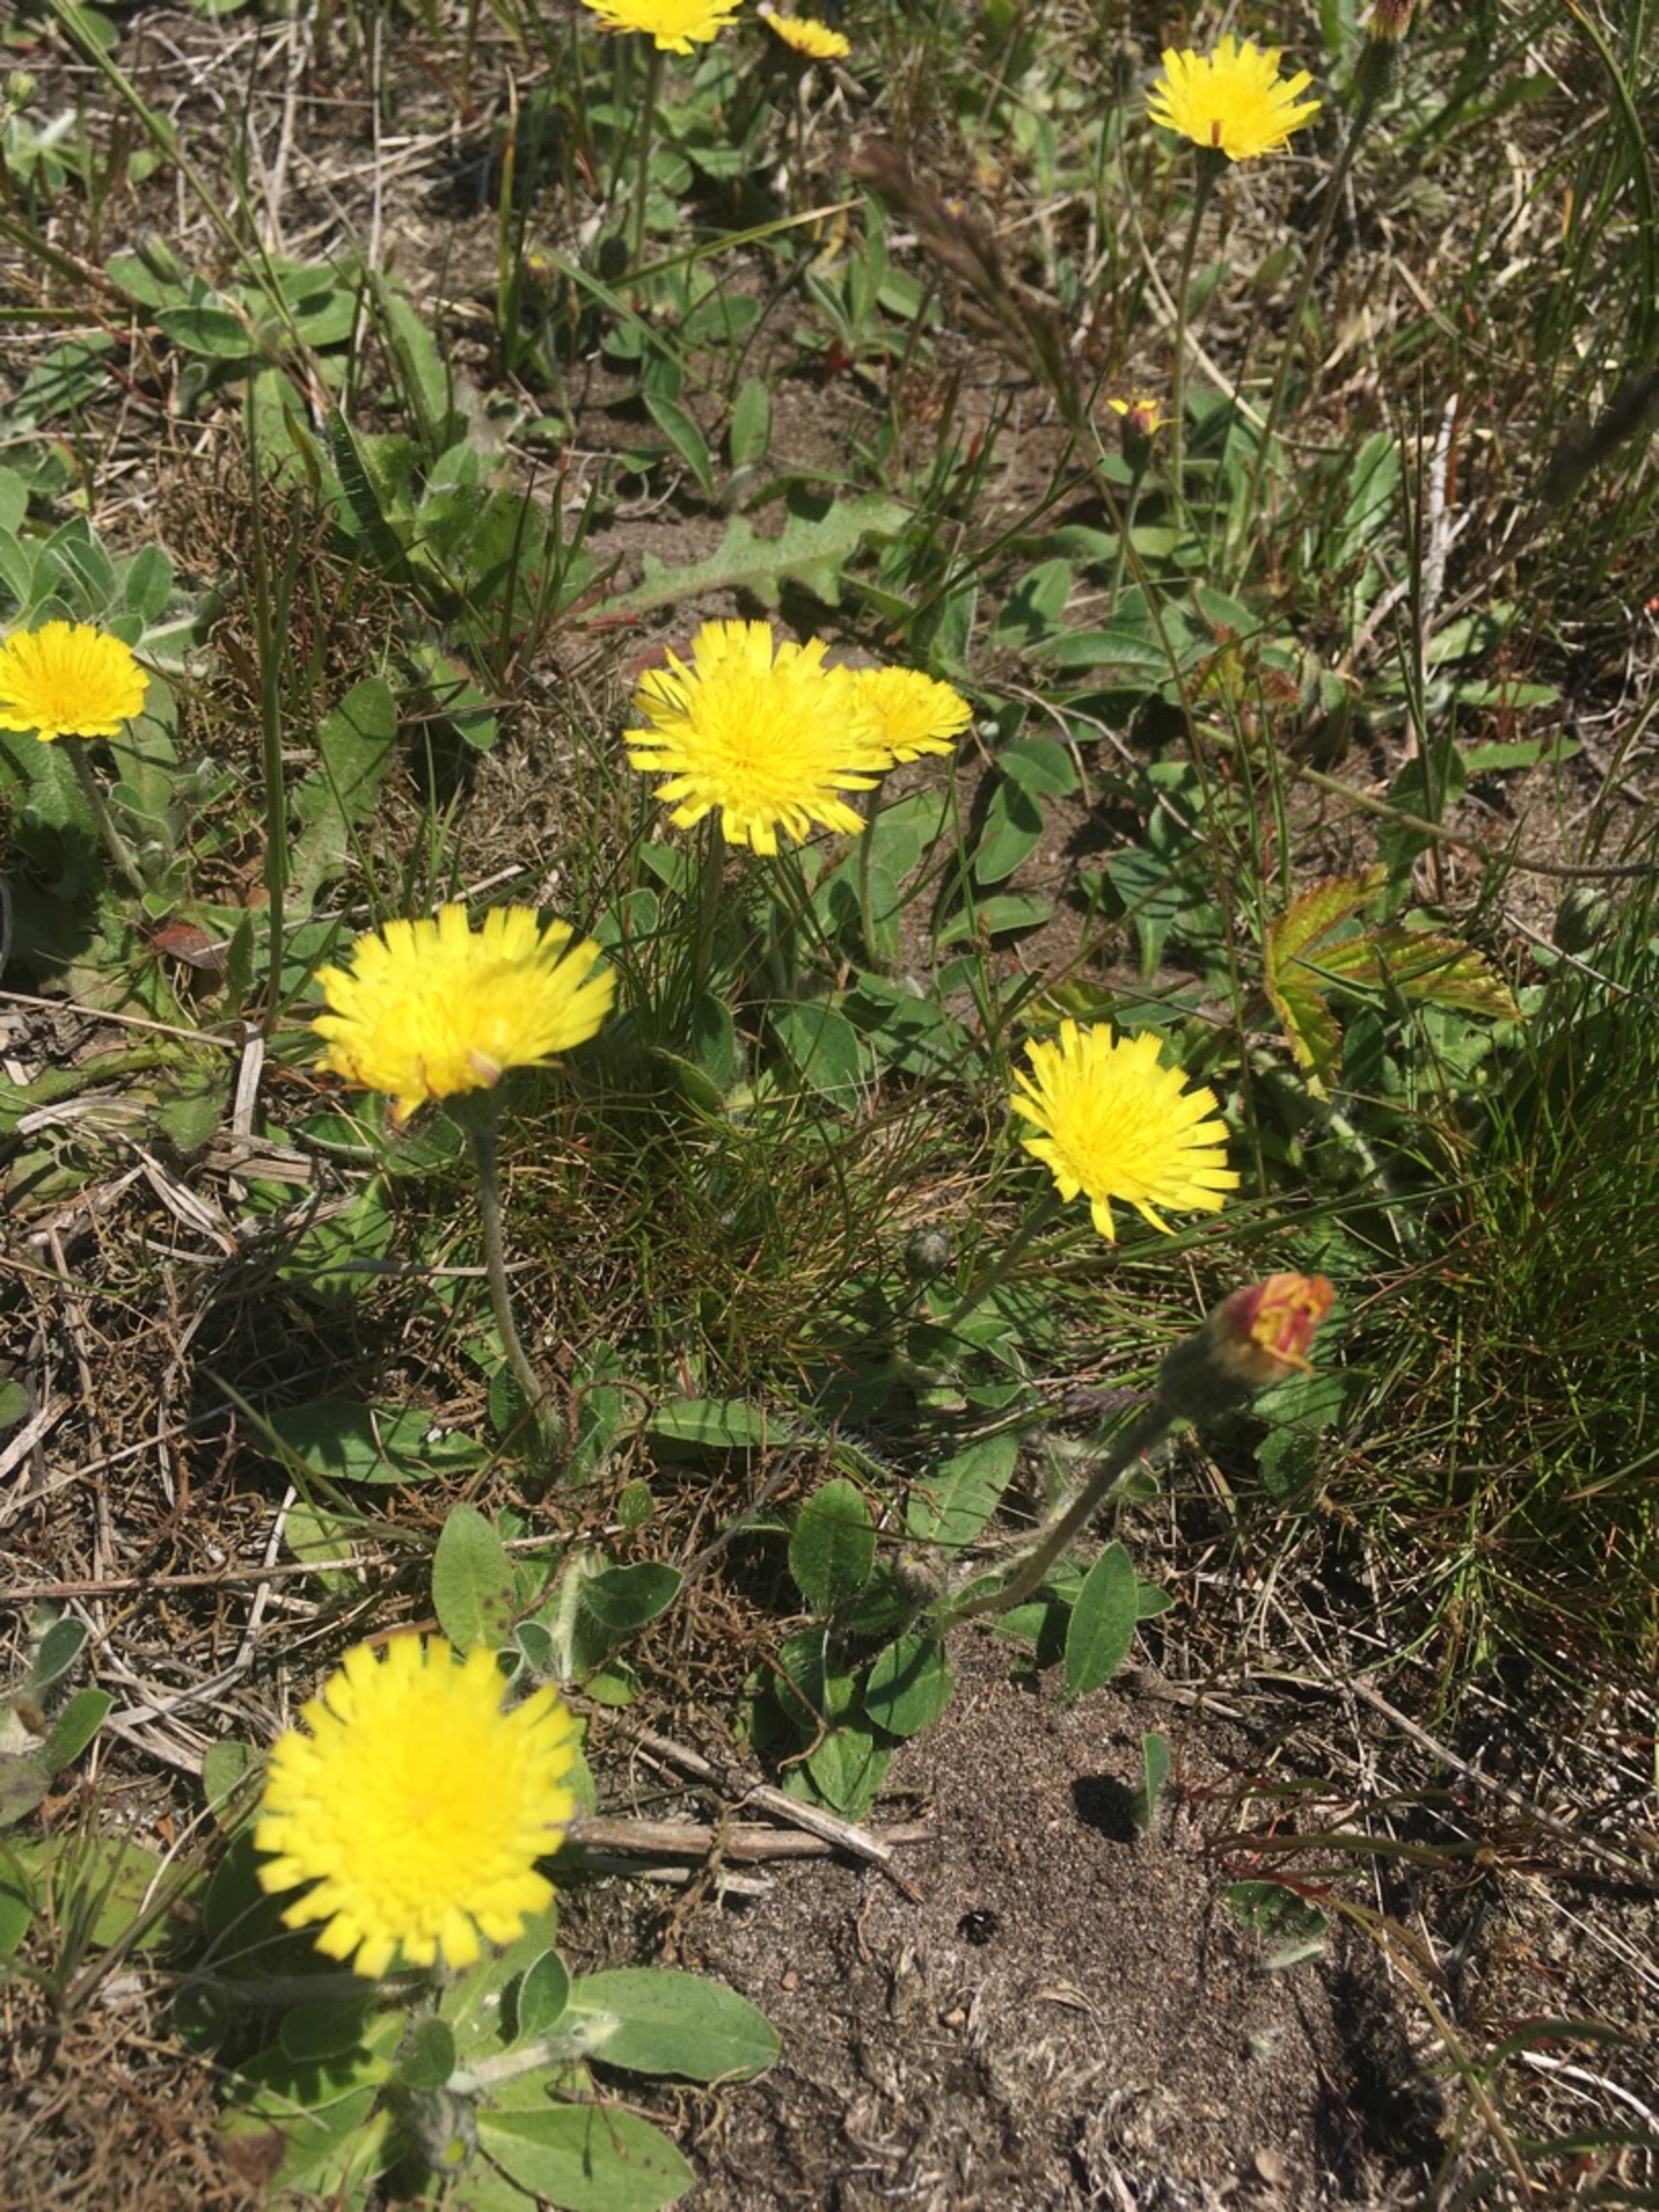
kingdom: Plantae
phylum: Tracheophyta
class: Magnoliopsida
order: Asterales
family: Asteraceae
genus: Pilosella
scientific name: Pilosella officinarum
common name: Håret høgeurt
